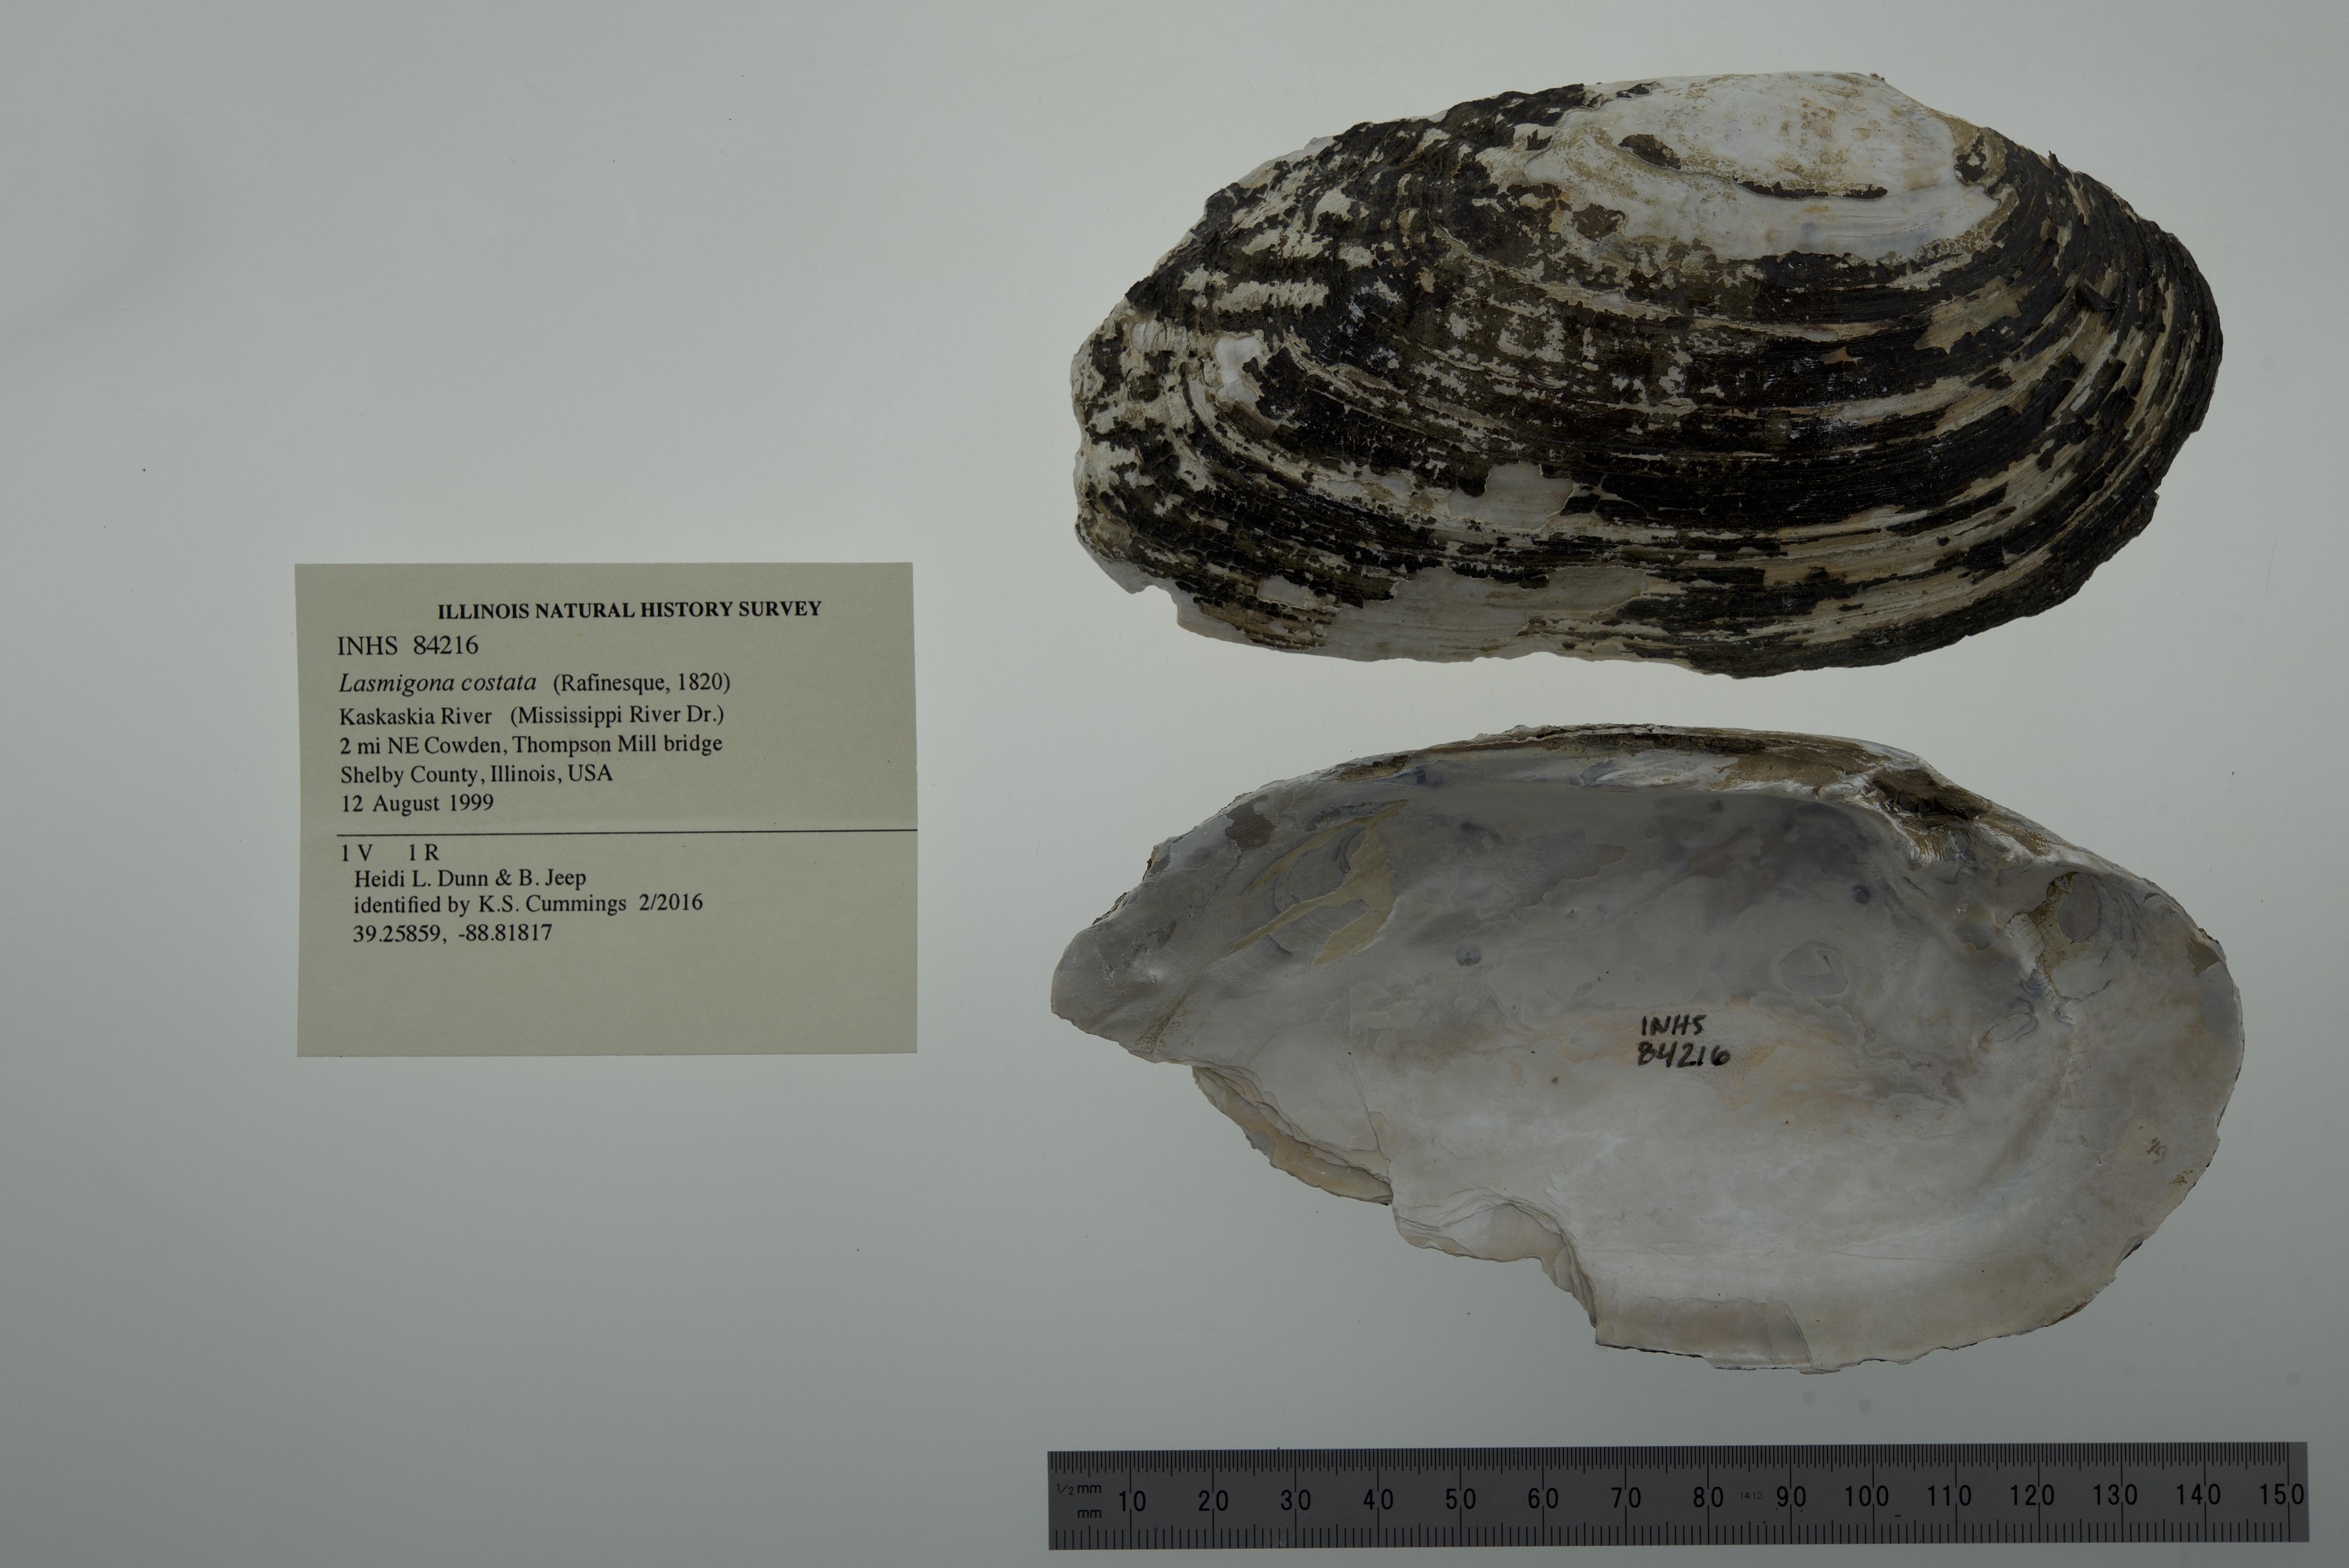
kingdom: Animalia
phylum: Mollusca
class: Bivalvia
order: Unionida
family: Unionidae
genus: Lasmigona
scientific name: Lasmigona costata
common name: Flutedshell
